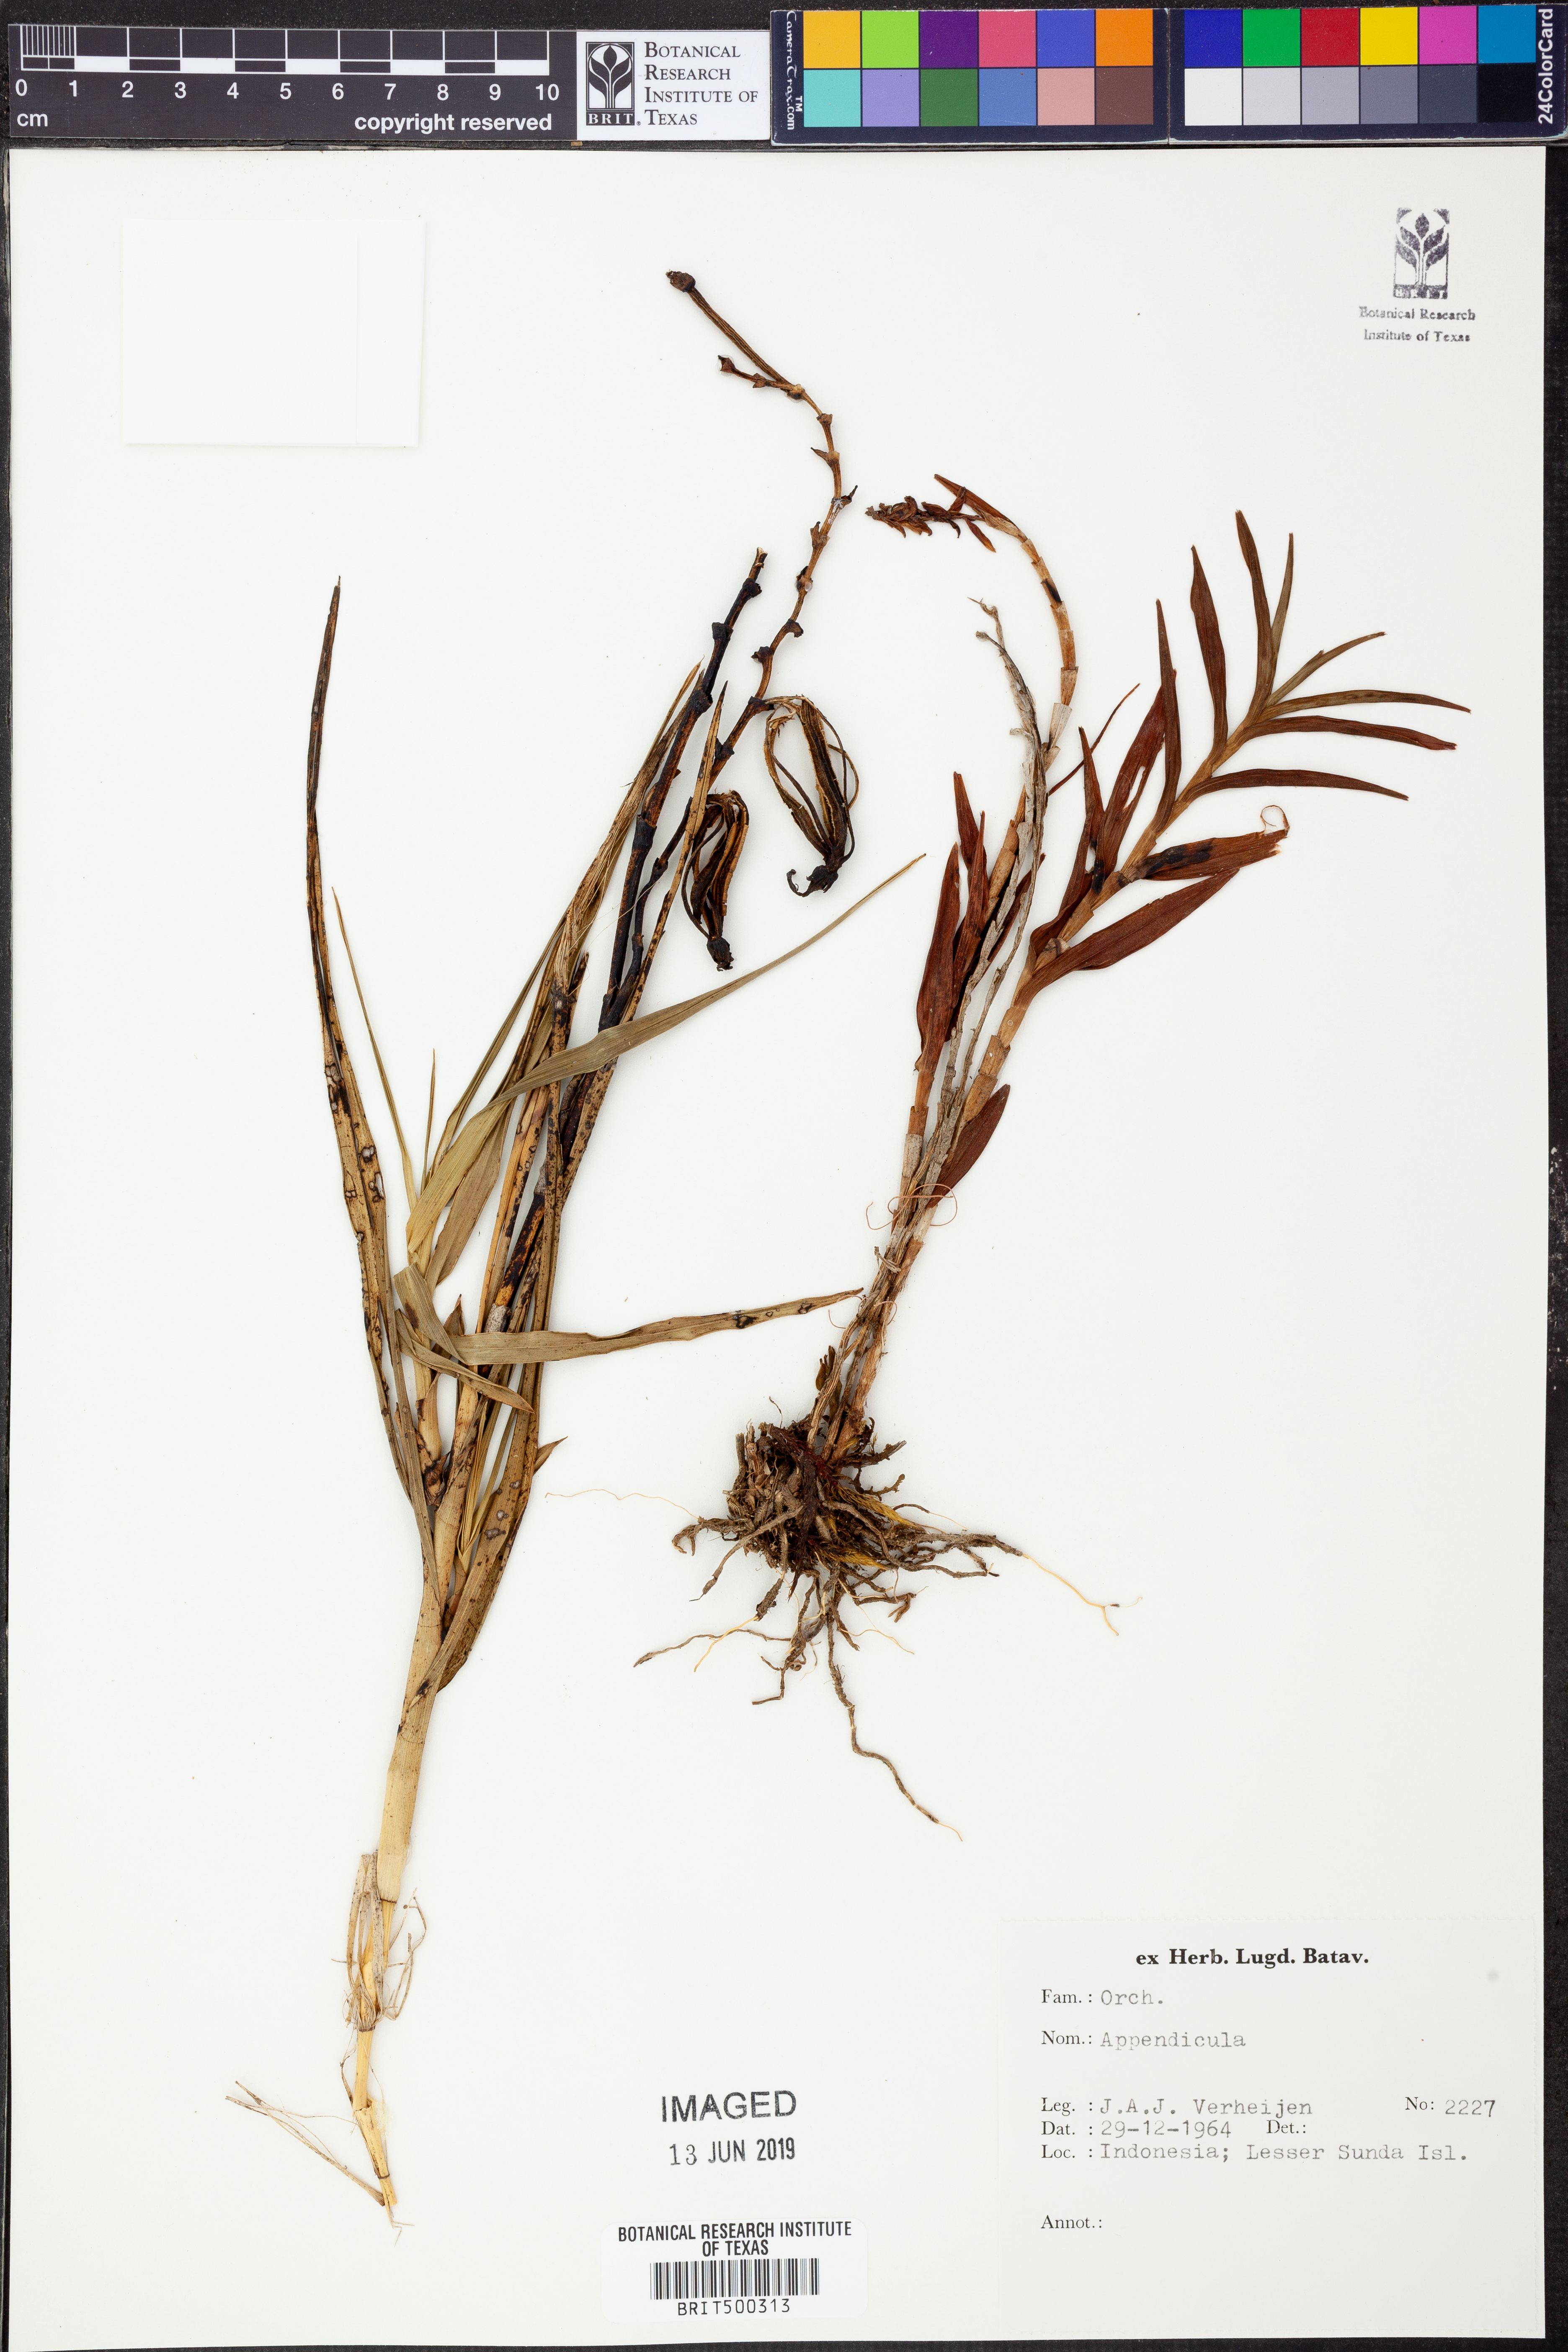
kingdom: Plantae
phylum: Tracheophyta
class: Liliopsida
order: Asparagales
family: Orchidaceae
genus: Appendicula
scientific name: Appendicula
